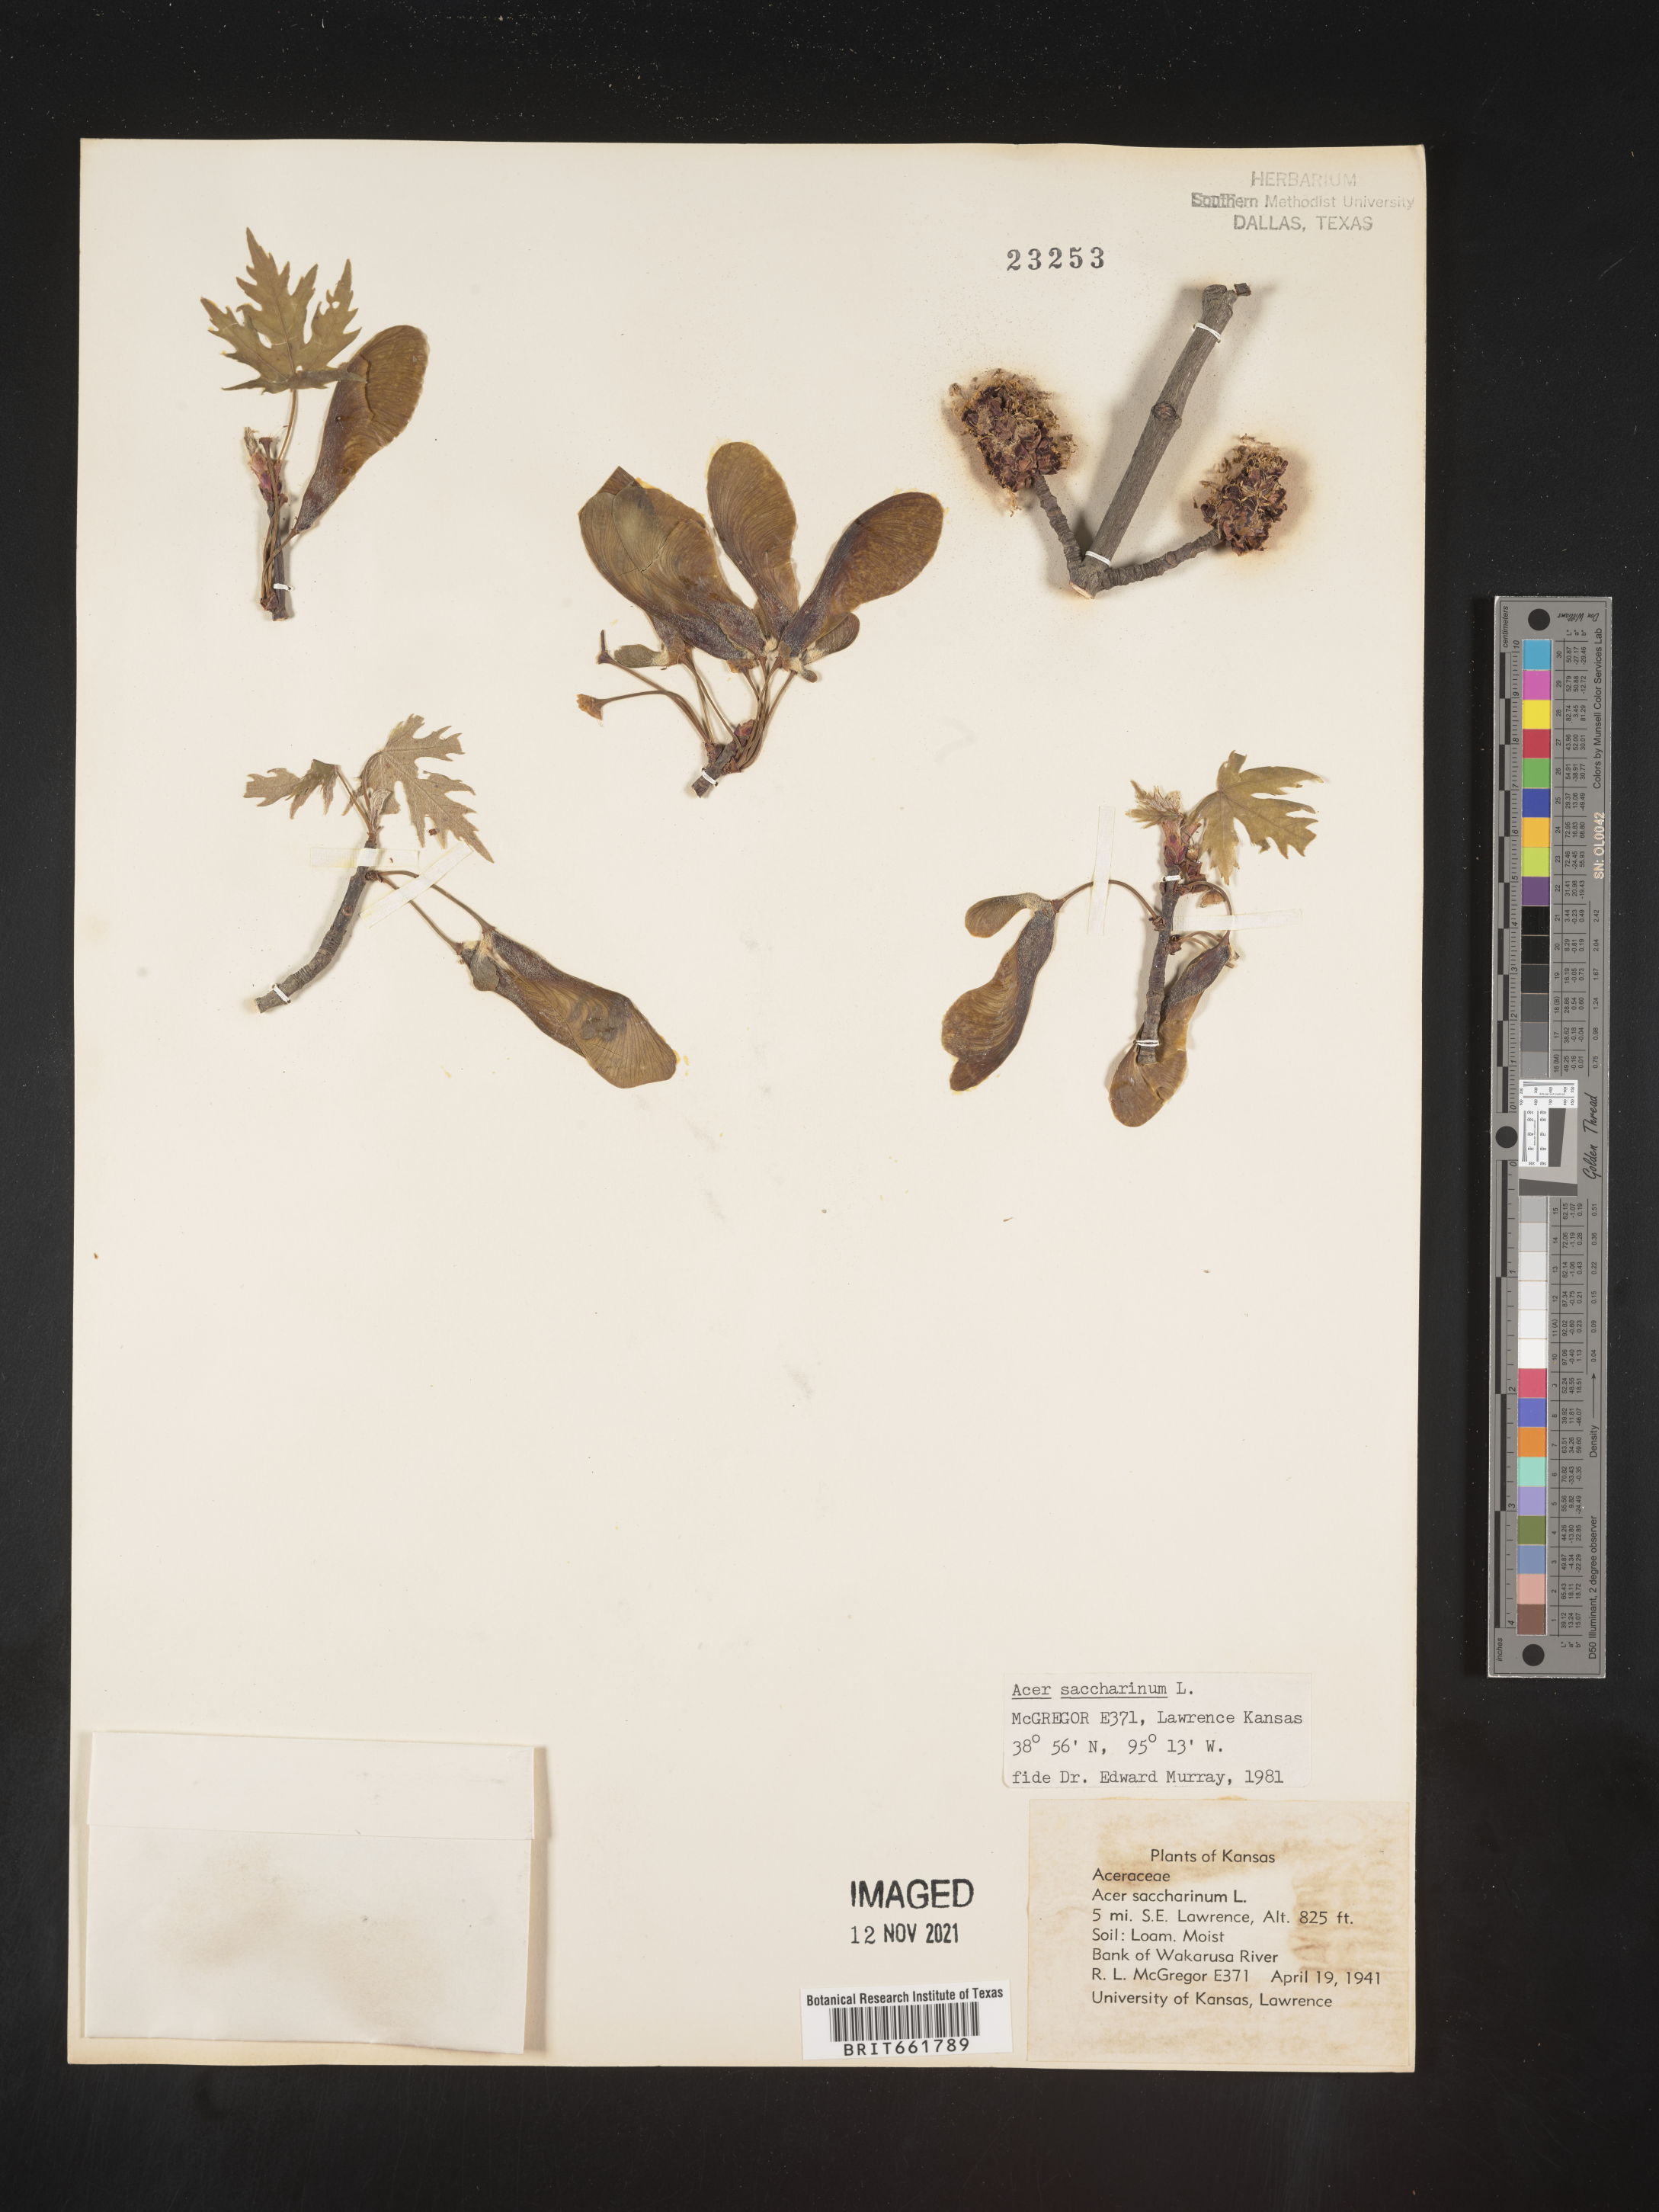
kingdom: Plantae
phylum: Tracheophyta
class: Magnoliopsida
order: Sapindales
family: Sapindaceae
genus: Acer
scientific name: Acer saccharinum
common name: Silver maple
